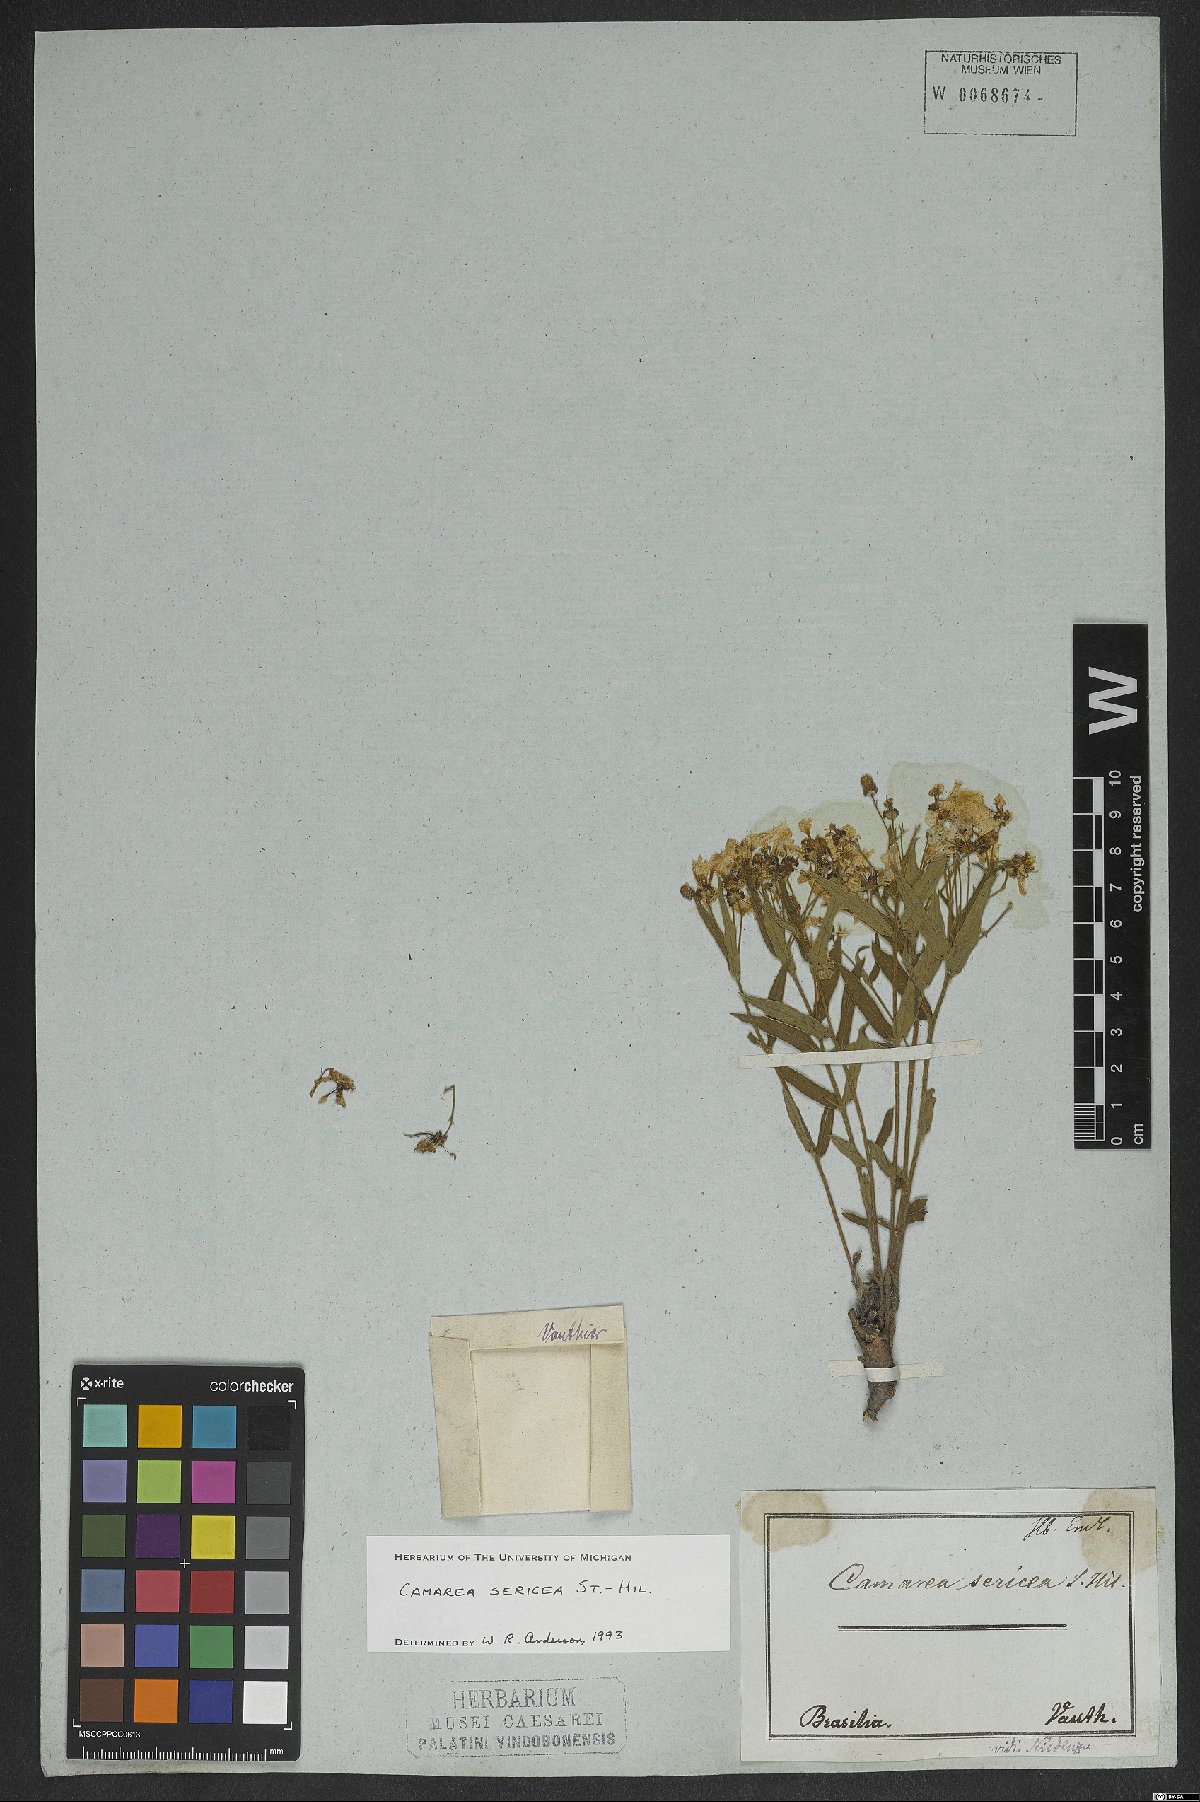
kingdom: Plantae
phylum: Tracheophyta
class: Magnoliopsida
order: Malpighiales
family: Malpighiaceae
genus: Camarea
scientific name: Camarea sericea
